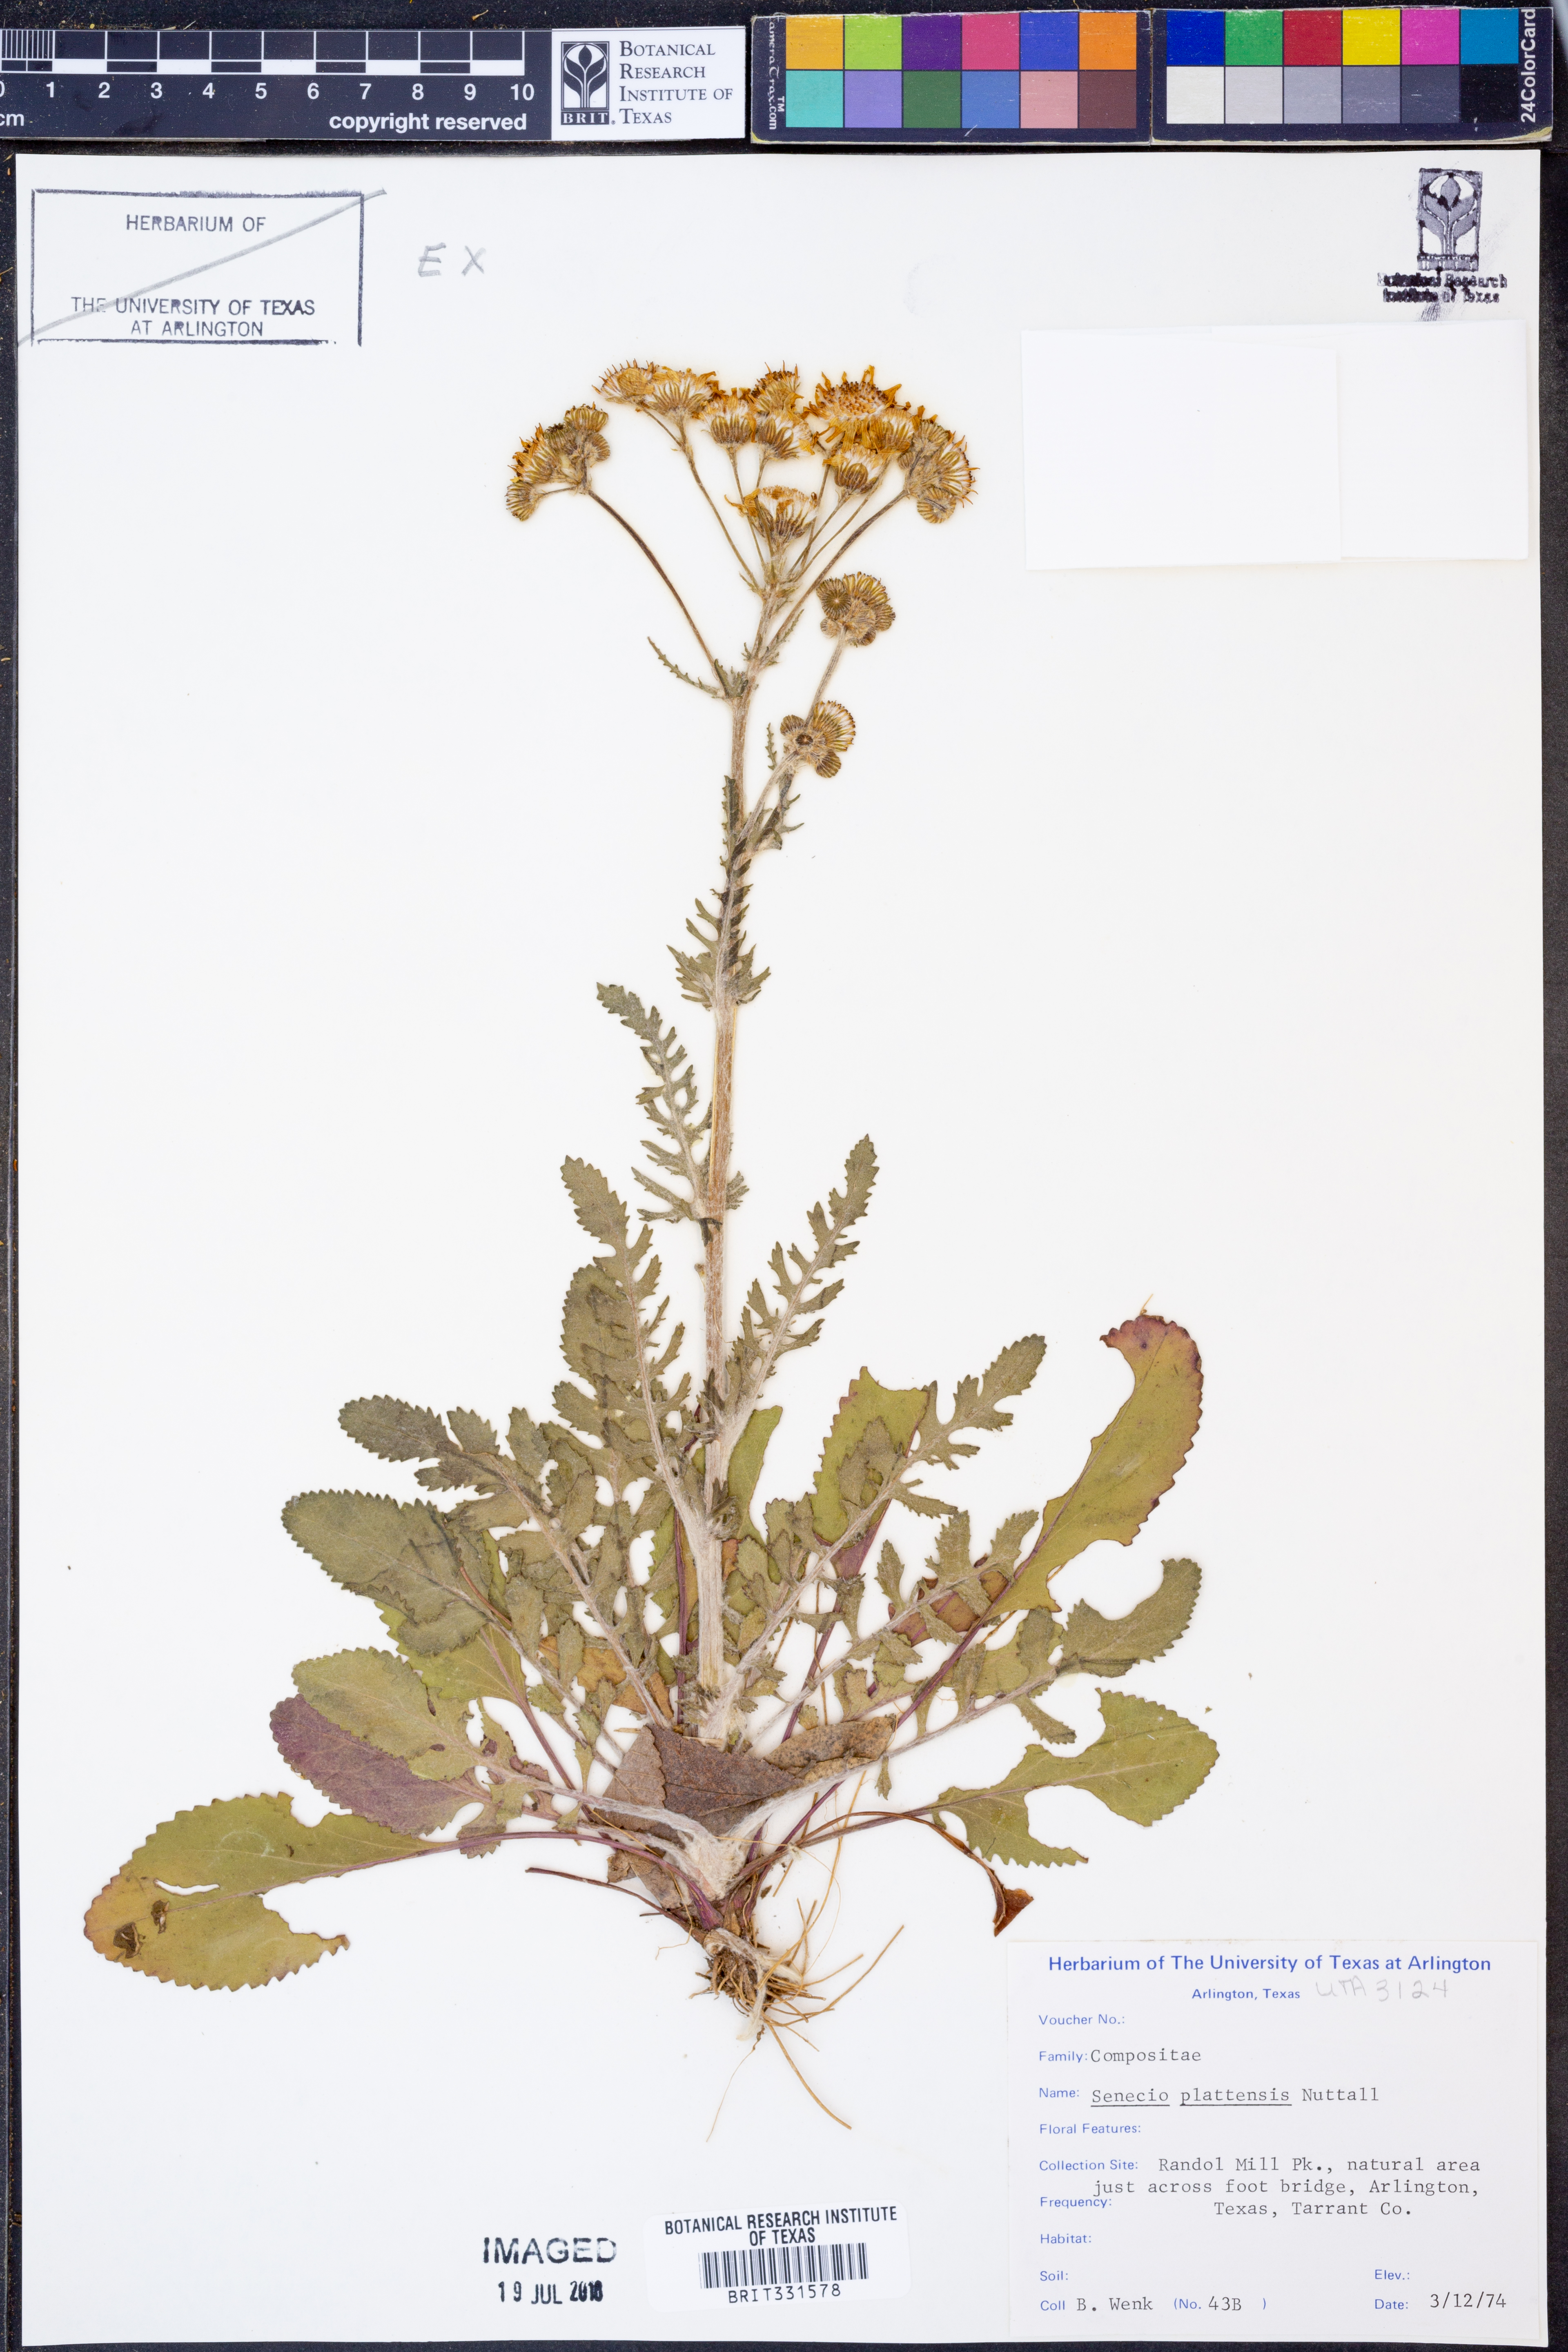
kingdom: Plantae
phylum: Tracheophyta
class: Magnoliopsida
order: Asterales
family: Asteraceae
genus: Packera
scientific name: Packera plattensis
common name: Prairie groundsel
